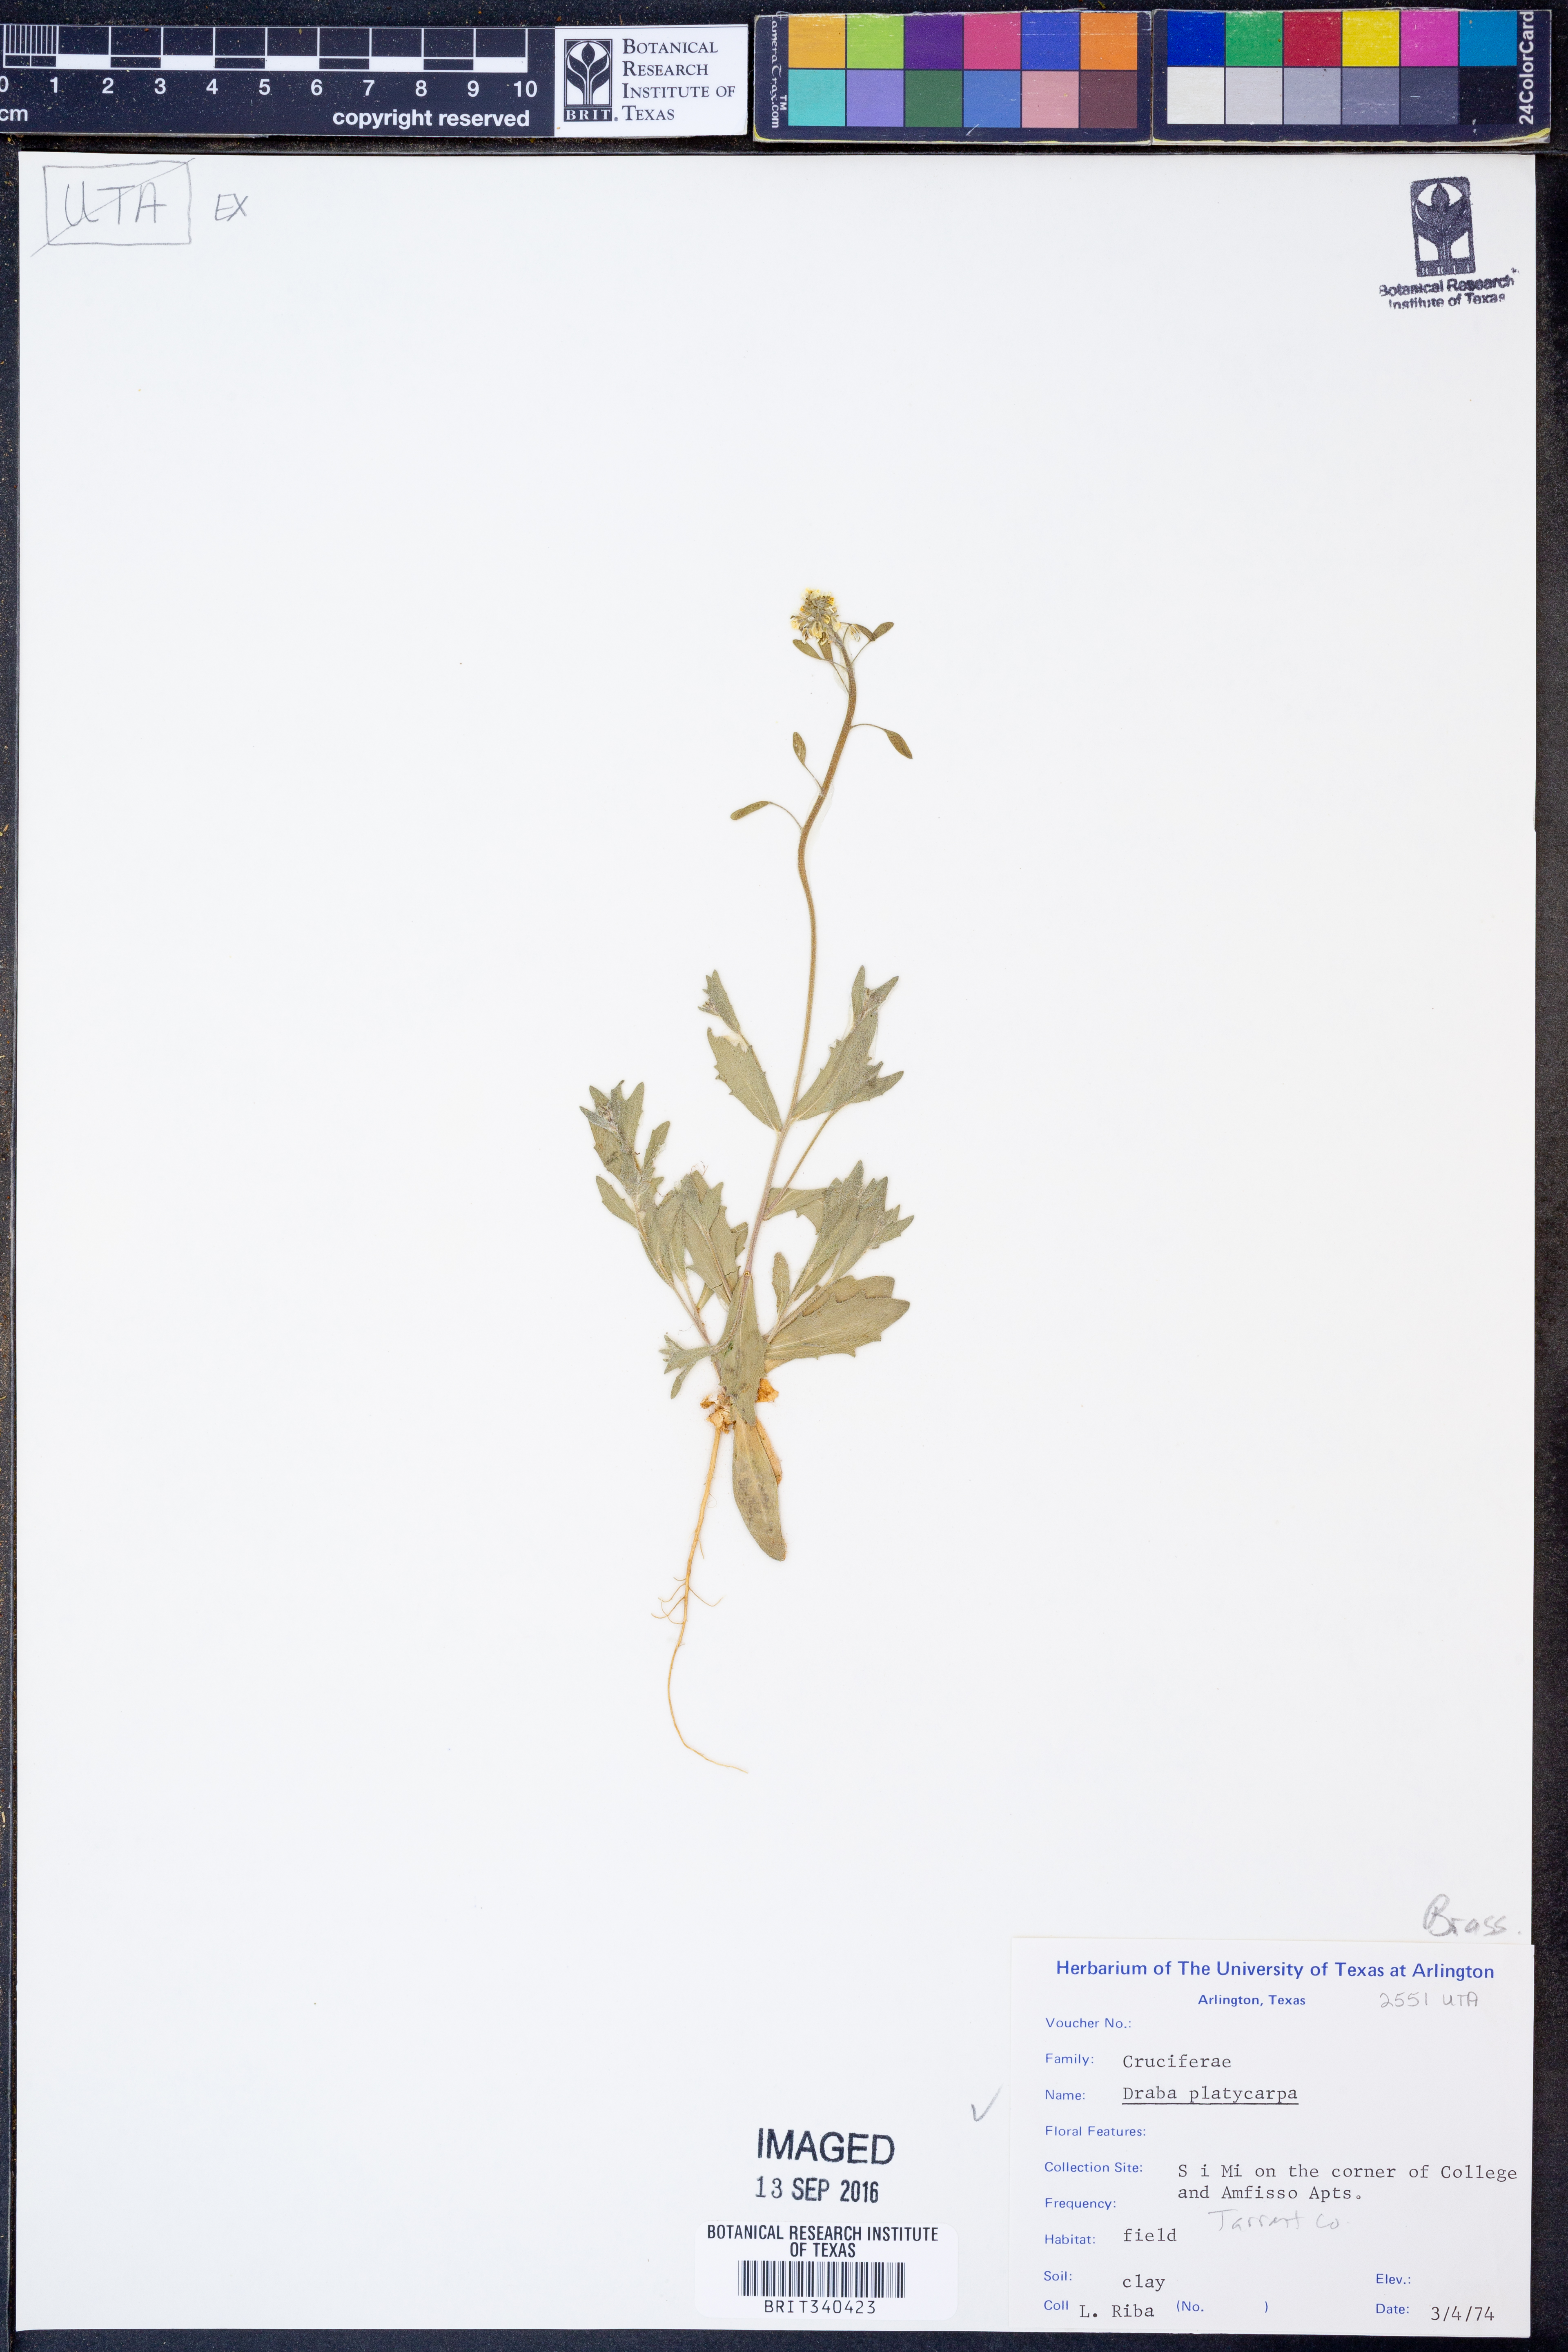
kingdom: Plantae
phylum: Tracheophyta
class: Magnoliopsida
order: Brassicales
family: Brassicaceae
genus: Tomostima
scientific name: Tomostima platycarpa
